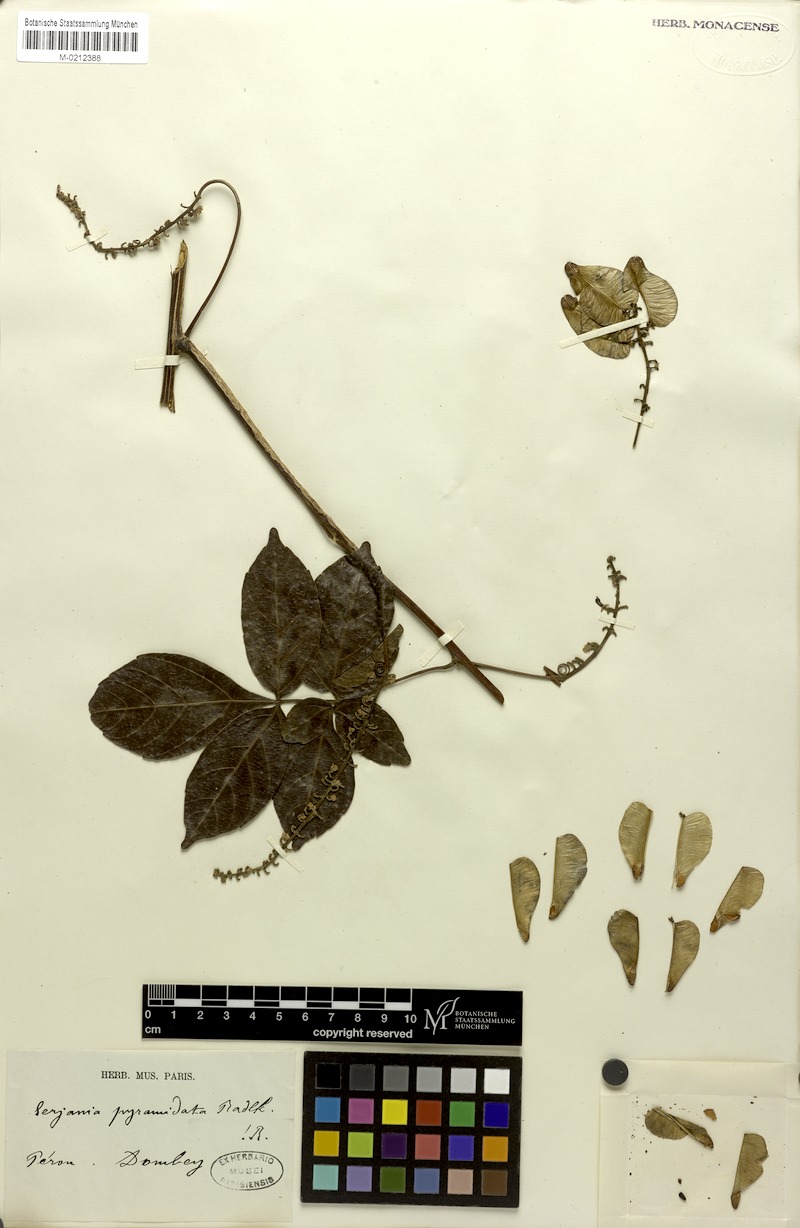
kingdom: Plantae
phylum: Tracheophyta
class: Magnoliopsida
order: Sapindales
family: Sapindaceae
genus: Serjania
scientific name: Serjania pyramidata
